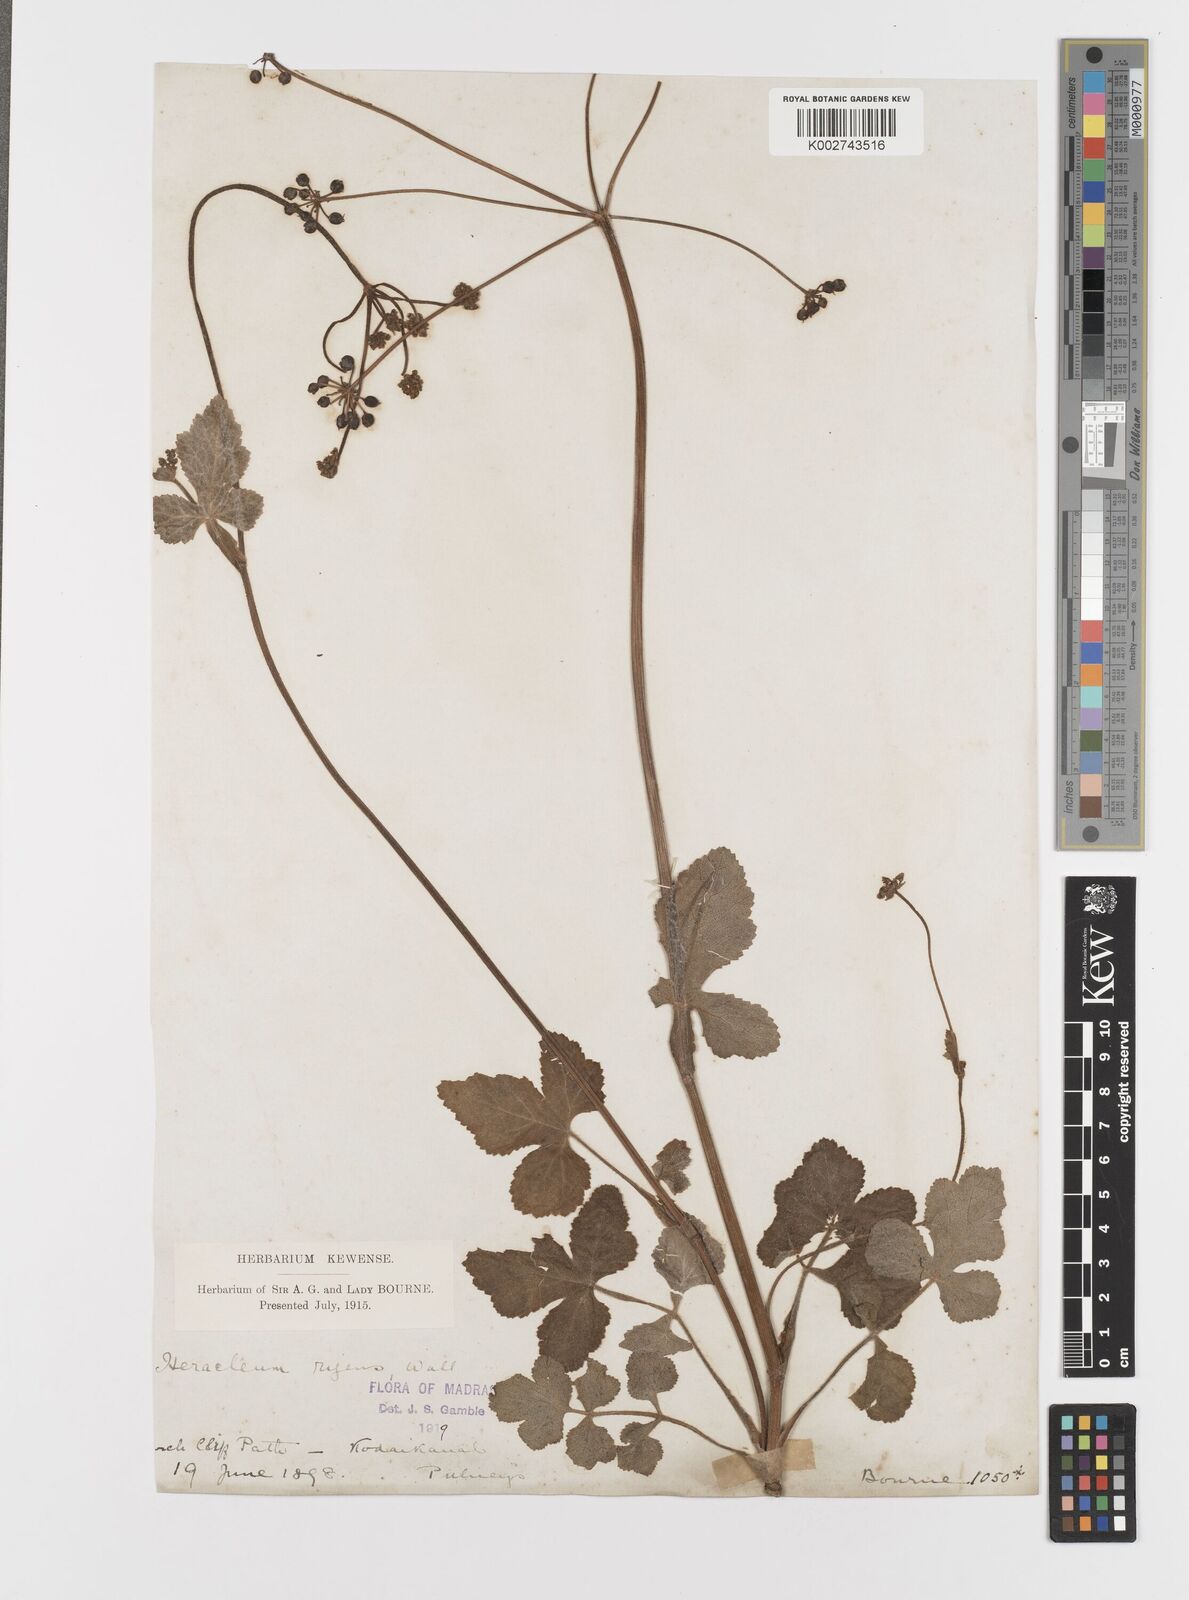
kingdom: Plantae
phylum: Tracheophyta
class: Magnoliopsida
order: Apiales
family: Apiaceae
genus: Tetrataenium
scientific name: Tetrataenium rigens
